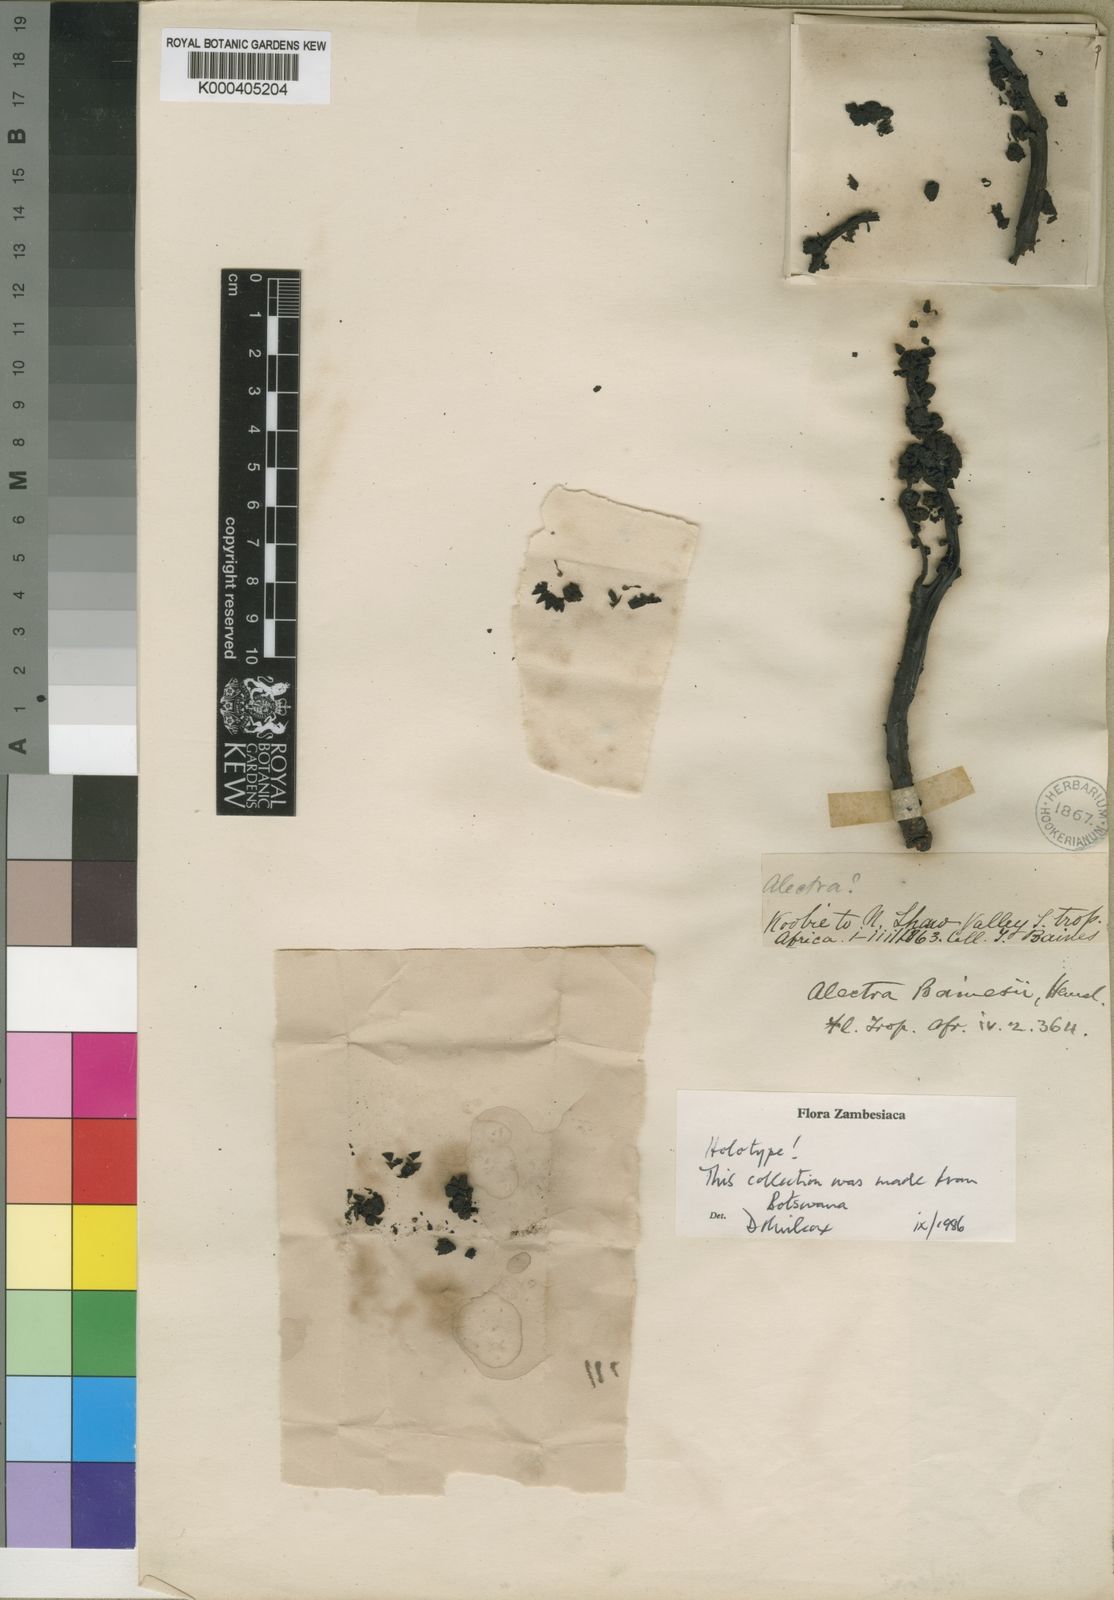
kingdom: Plantae
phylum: Tracheophyta
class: Magnoliopsida
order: Lamiales
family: Orobanchaceae
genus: Alectra
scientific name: Alectra bainesii
